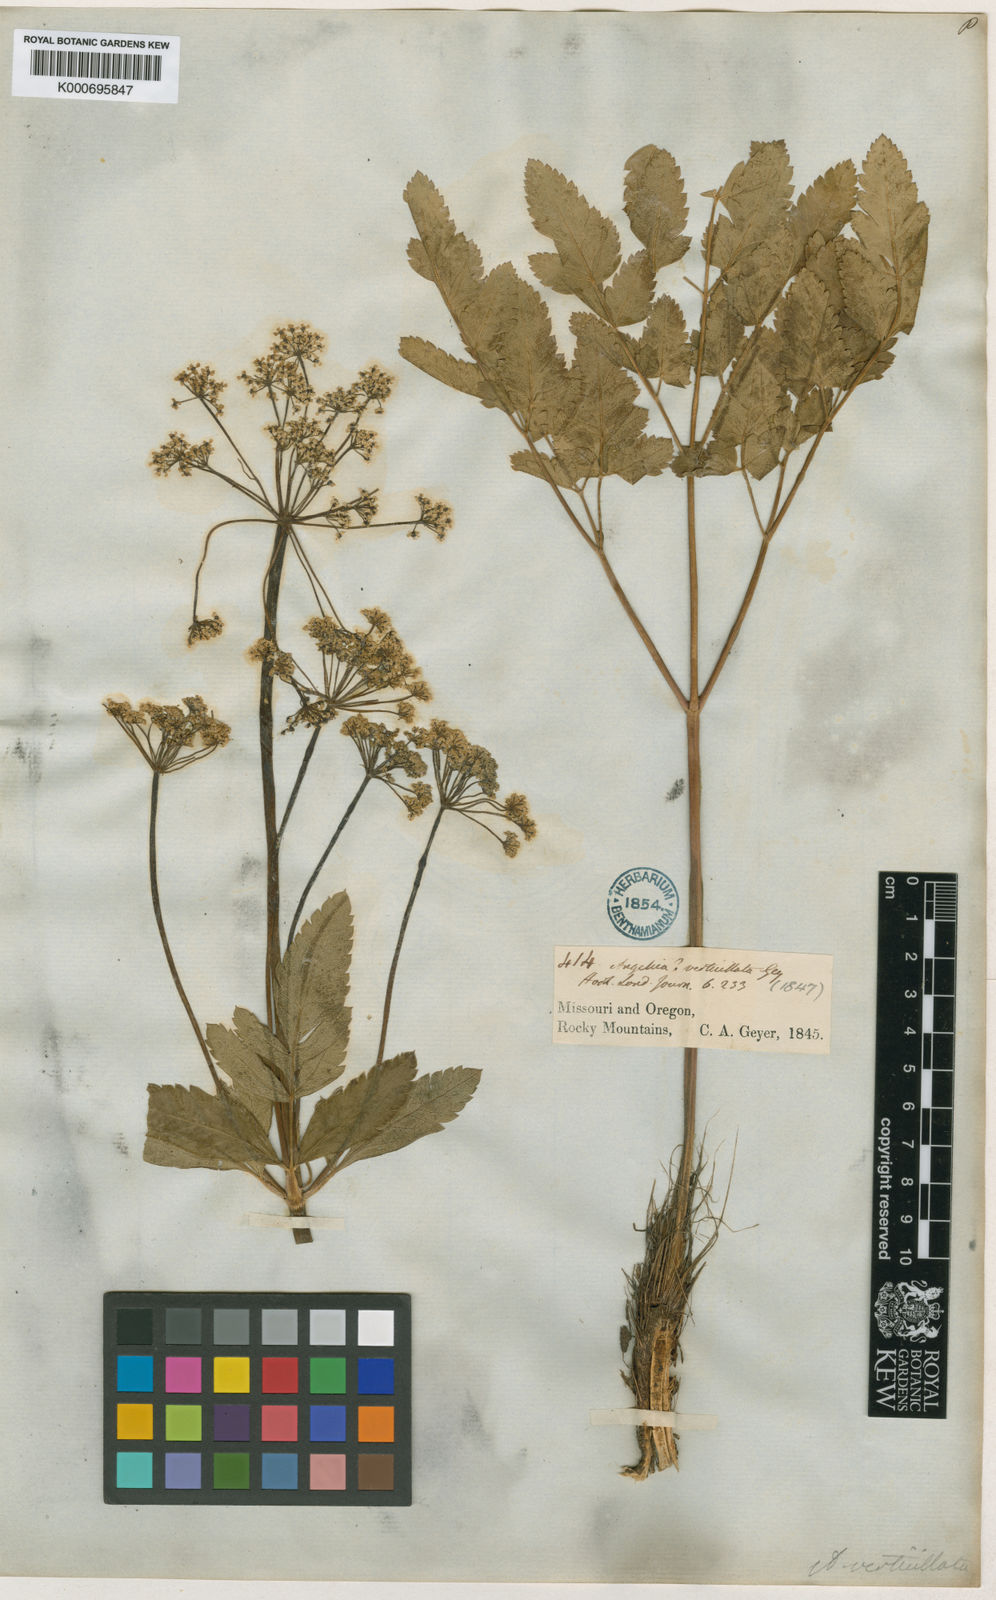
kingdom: Plantae
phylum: Tracheophyta
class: Magnoliopsida
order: Apiales
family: Apiaceae
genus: Ligusticum
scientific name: Ligusticum verticillatum
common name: Northern licorice-root
